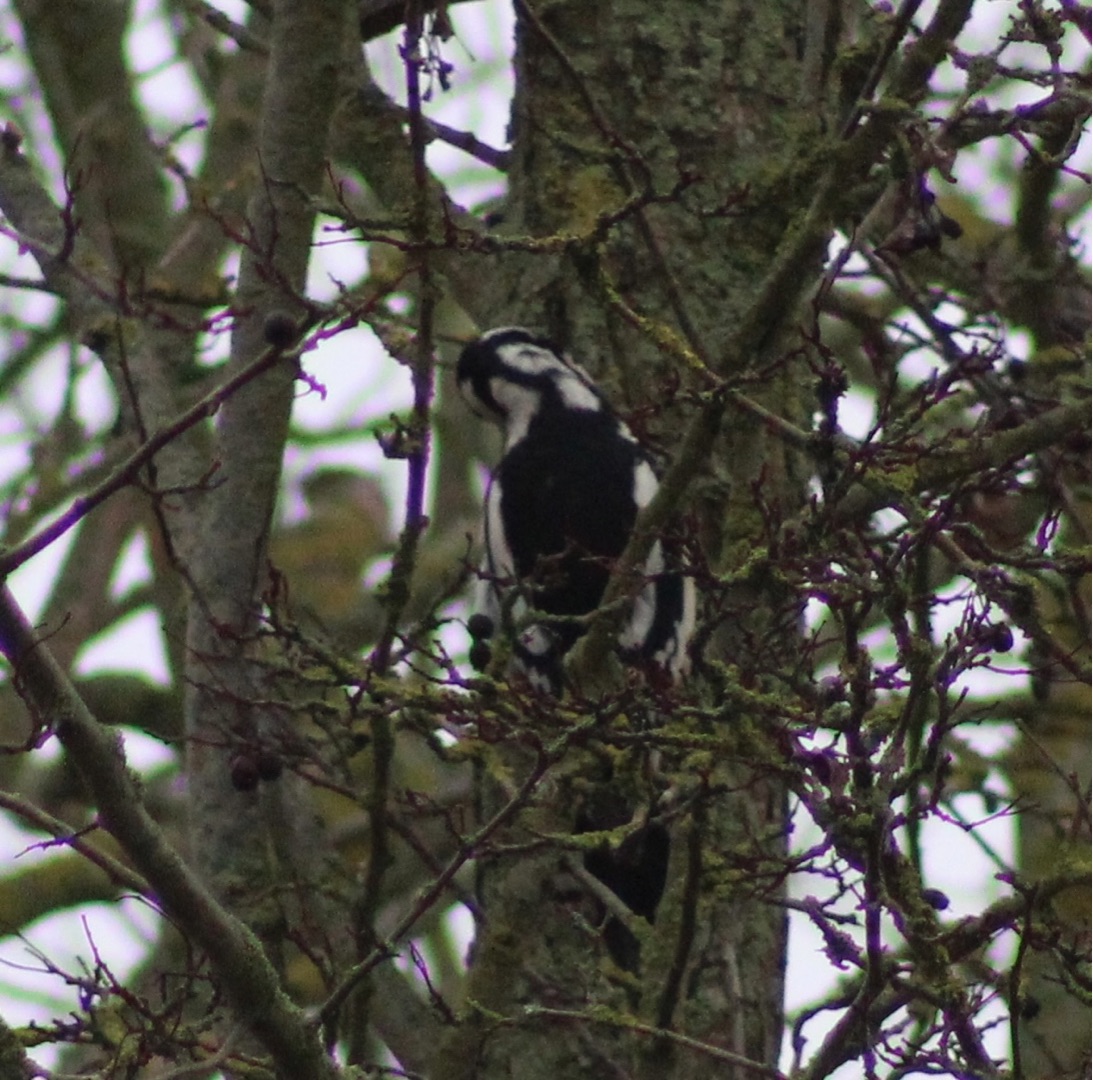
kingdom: Animalia
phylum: Chordata
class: Aves
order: Piciformes
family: Picidae
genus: Dendrocopos
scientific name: Dendrocopos major
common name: Stor flagspætte
